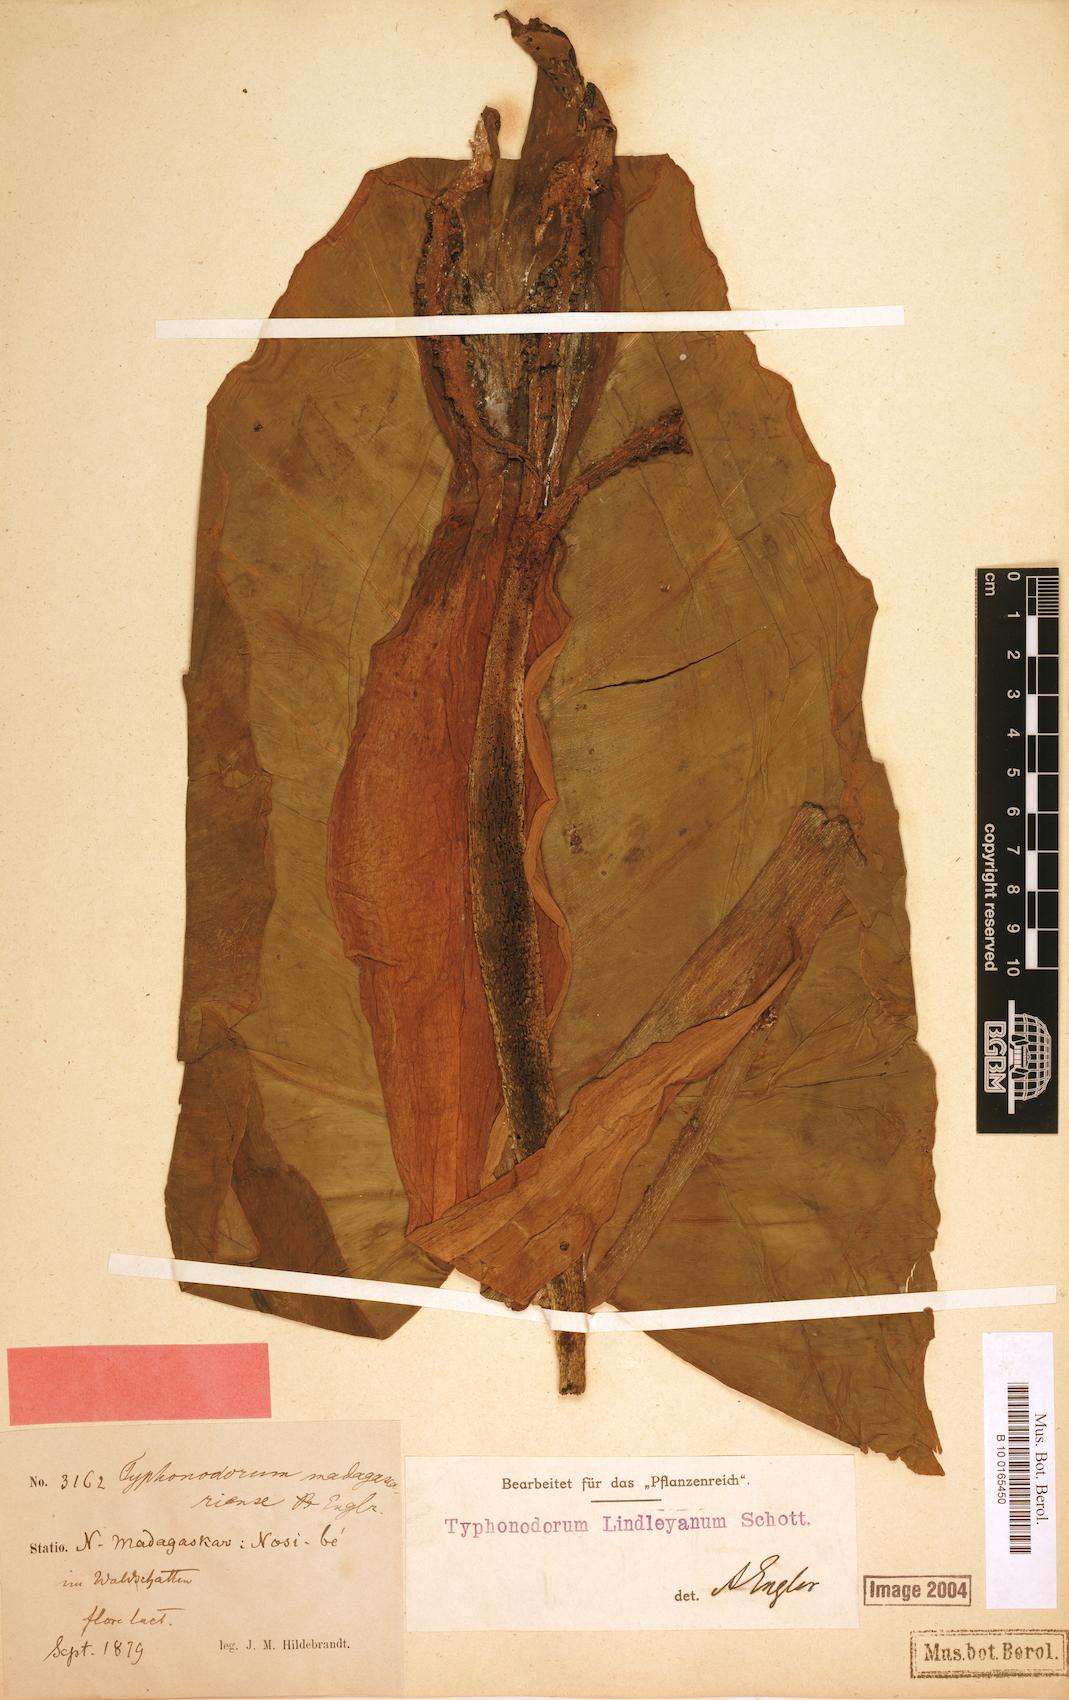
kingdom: Plantae
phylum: Tracheophyta
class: Liliopsida
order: Alismatales
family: Araceae
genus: Typhonodorum
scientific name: Typhonodorum lindleyanum
